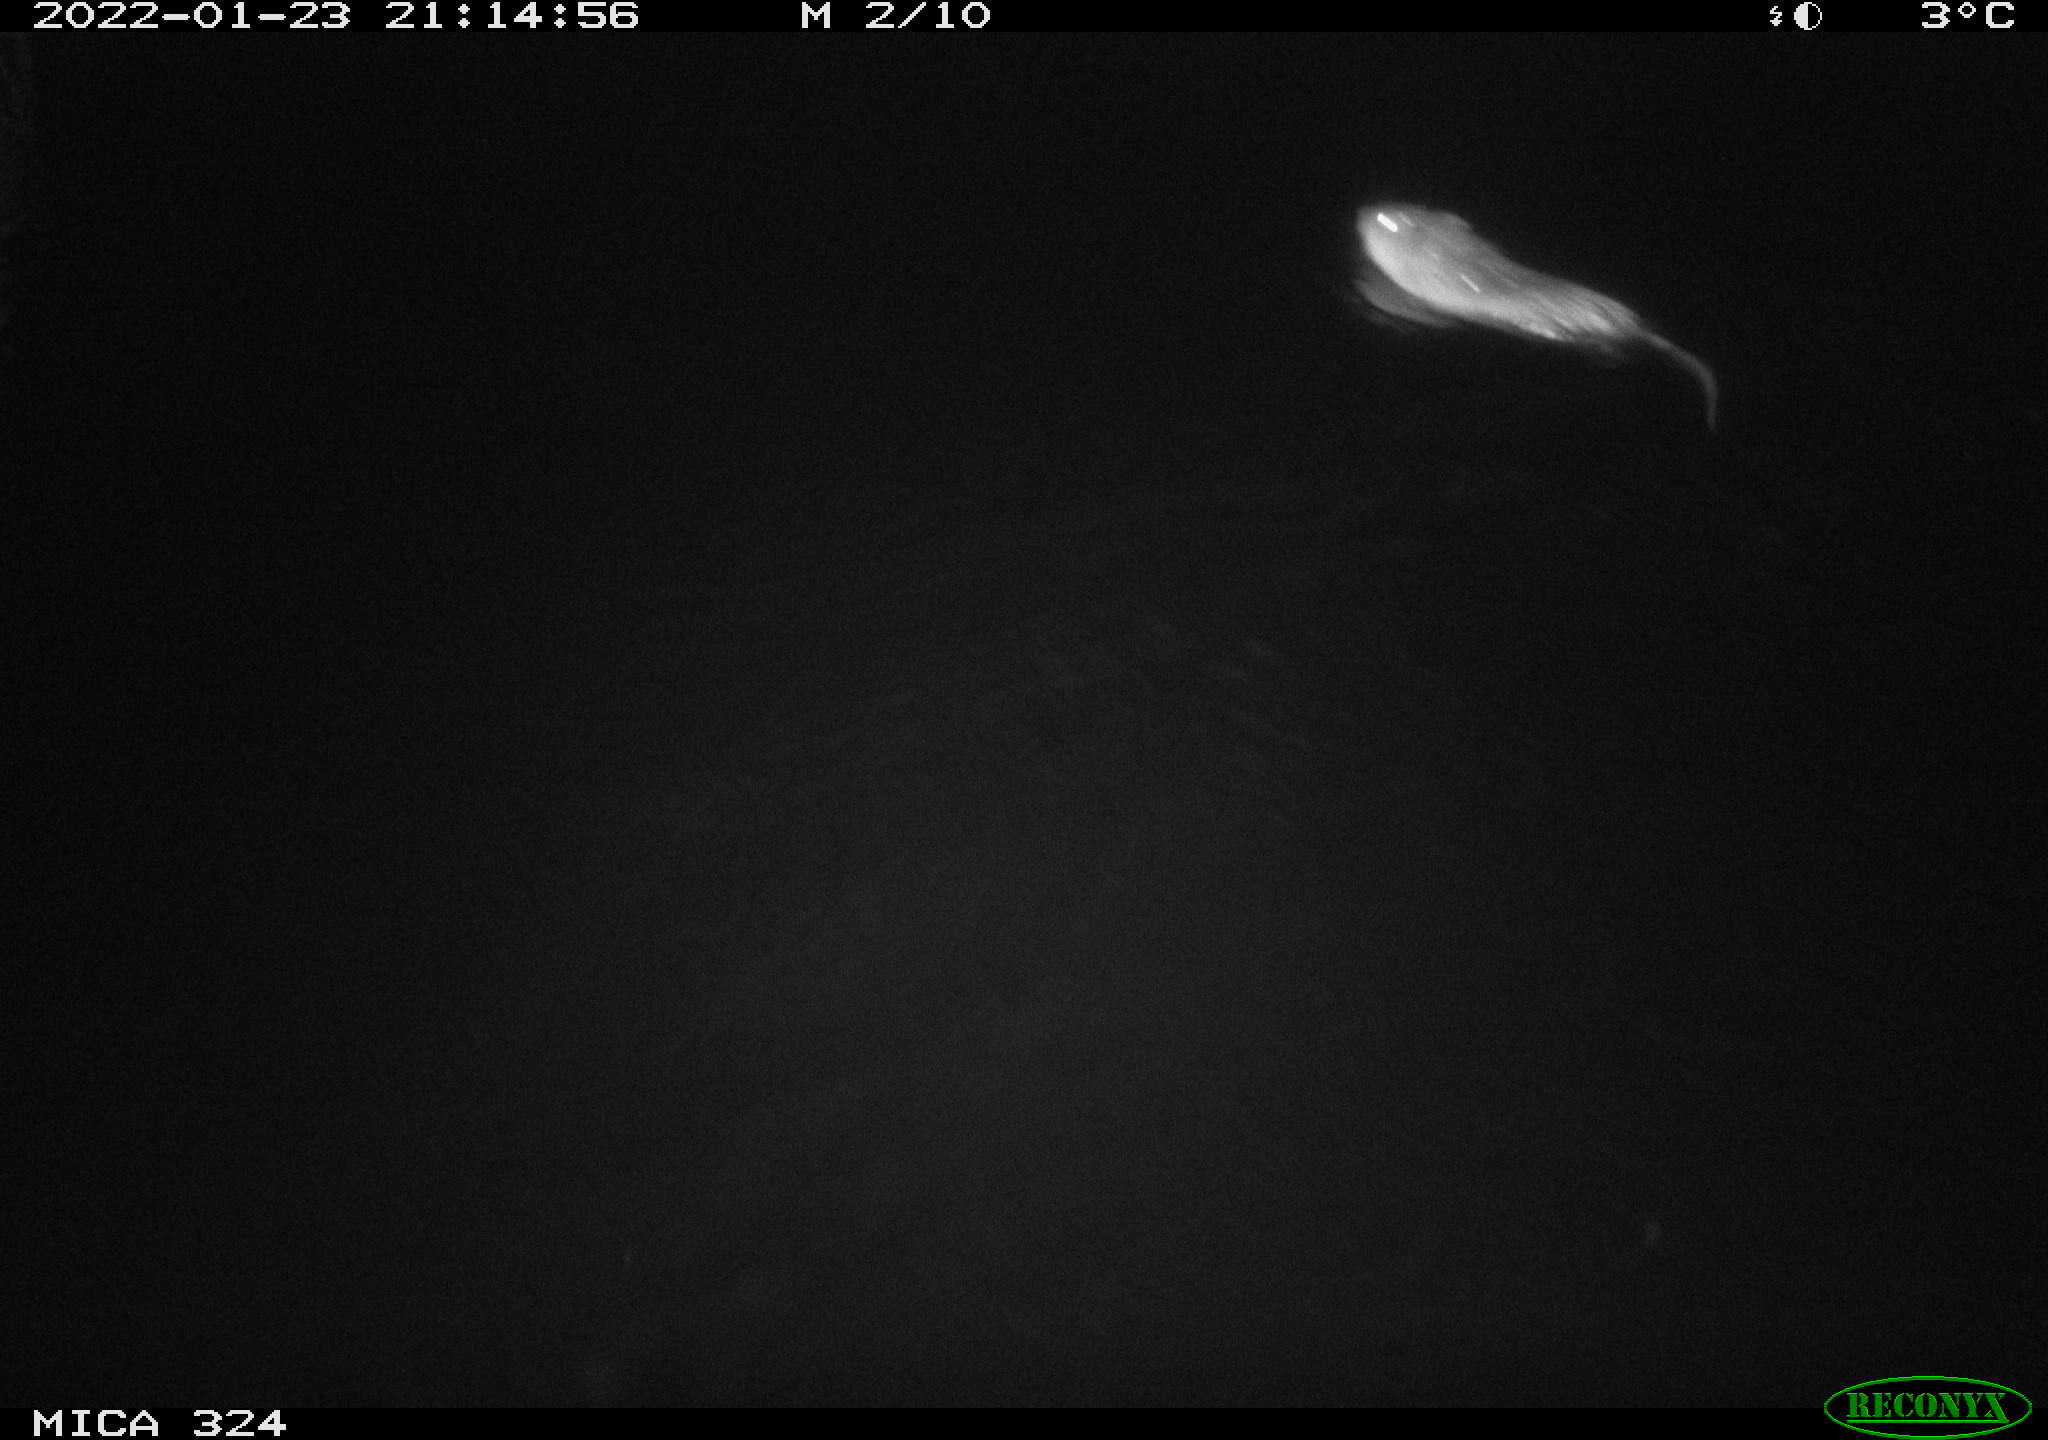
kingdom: Animalia
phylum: Chordata
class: Mammalia
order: Rodentia
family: Cricetidae
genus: Ondatra
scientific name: Ondatra zibethicus
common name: Muskrat
